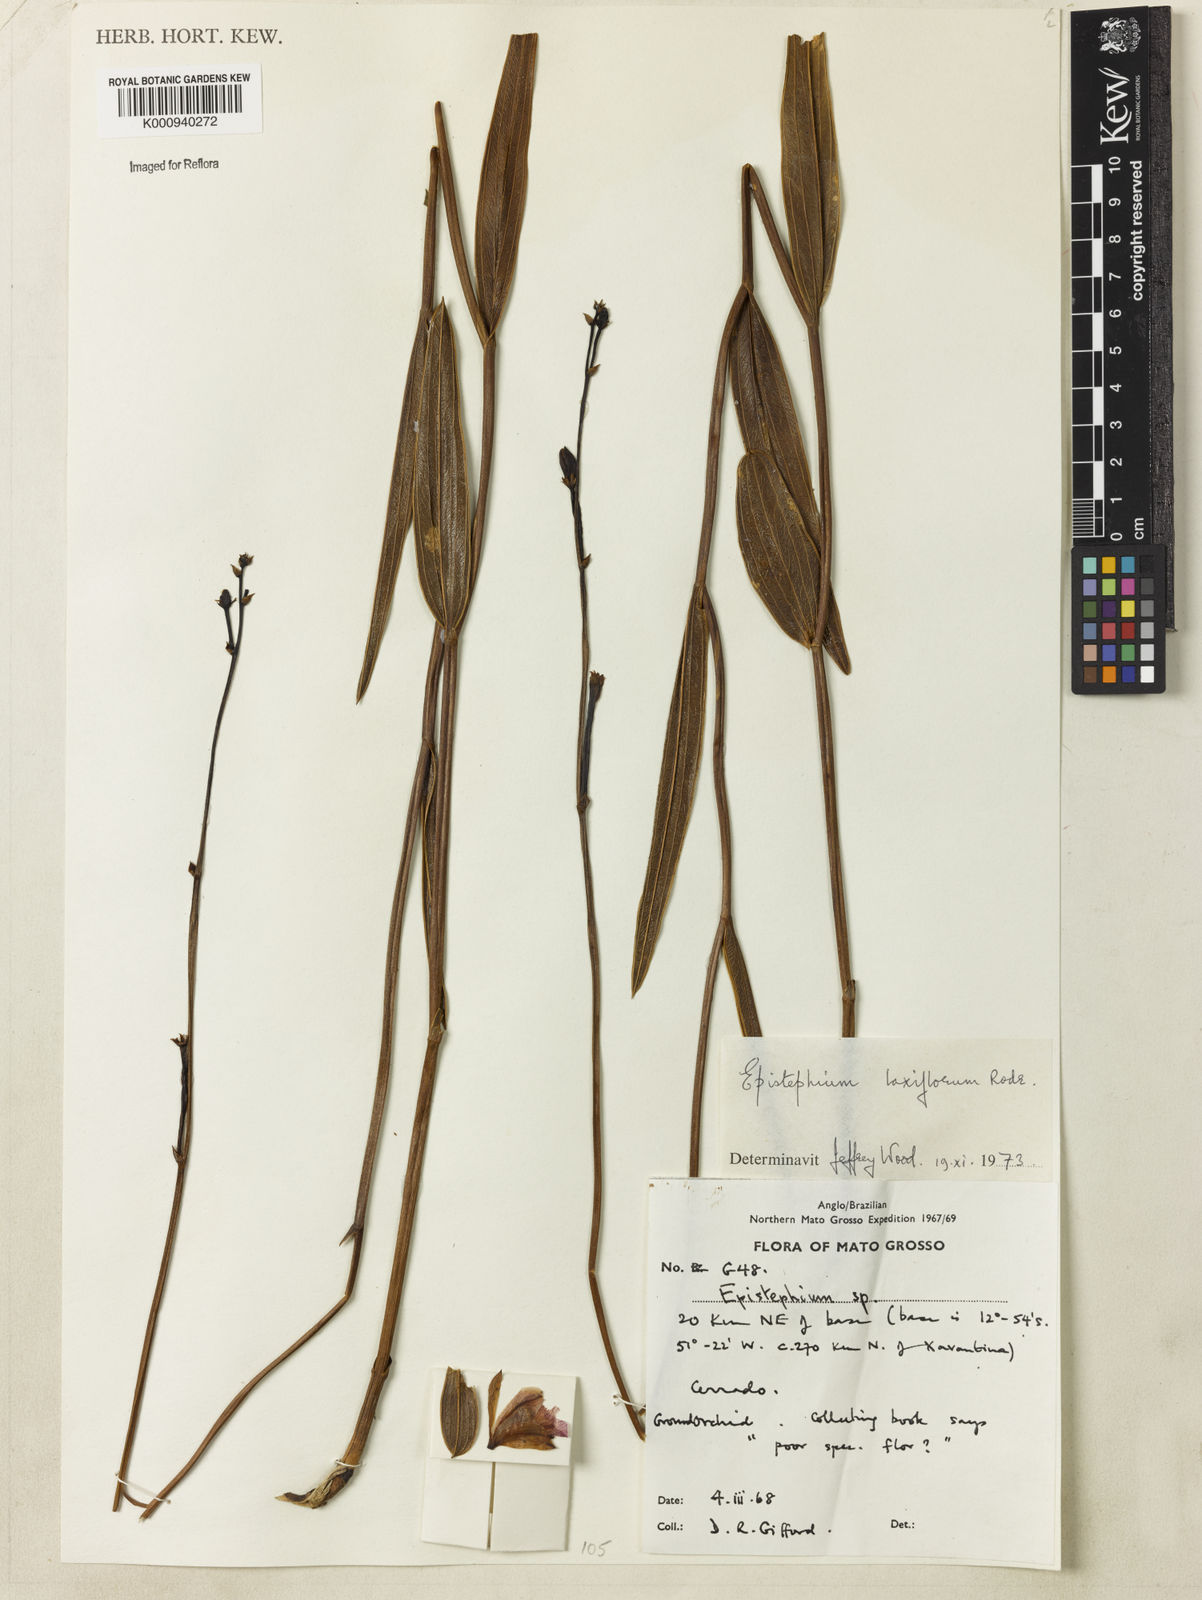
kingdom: Plantae
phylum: Tracheophyta
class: Liliopsida
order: Asparagales
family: Orchidaceae
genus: Epistephium
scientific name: Epistephium laxiflorum
